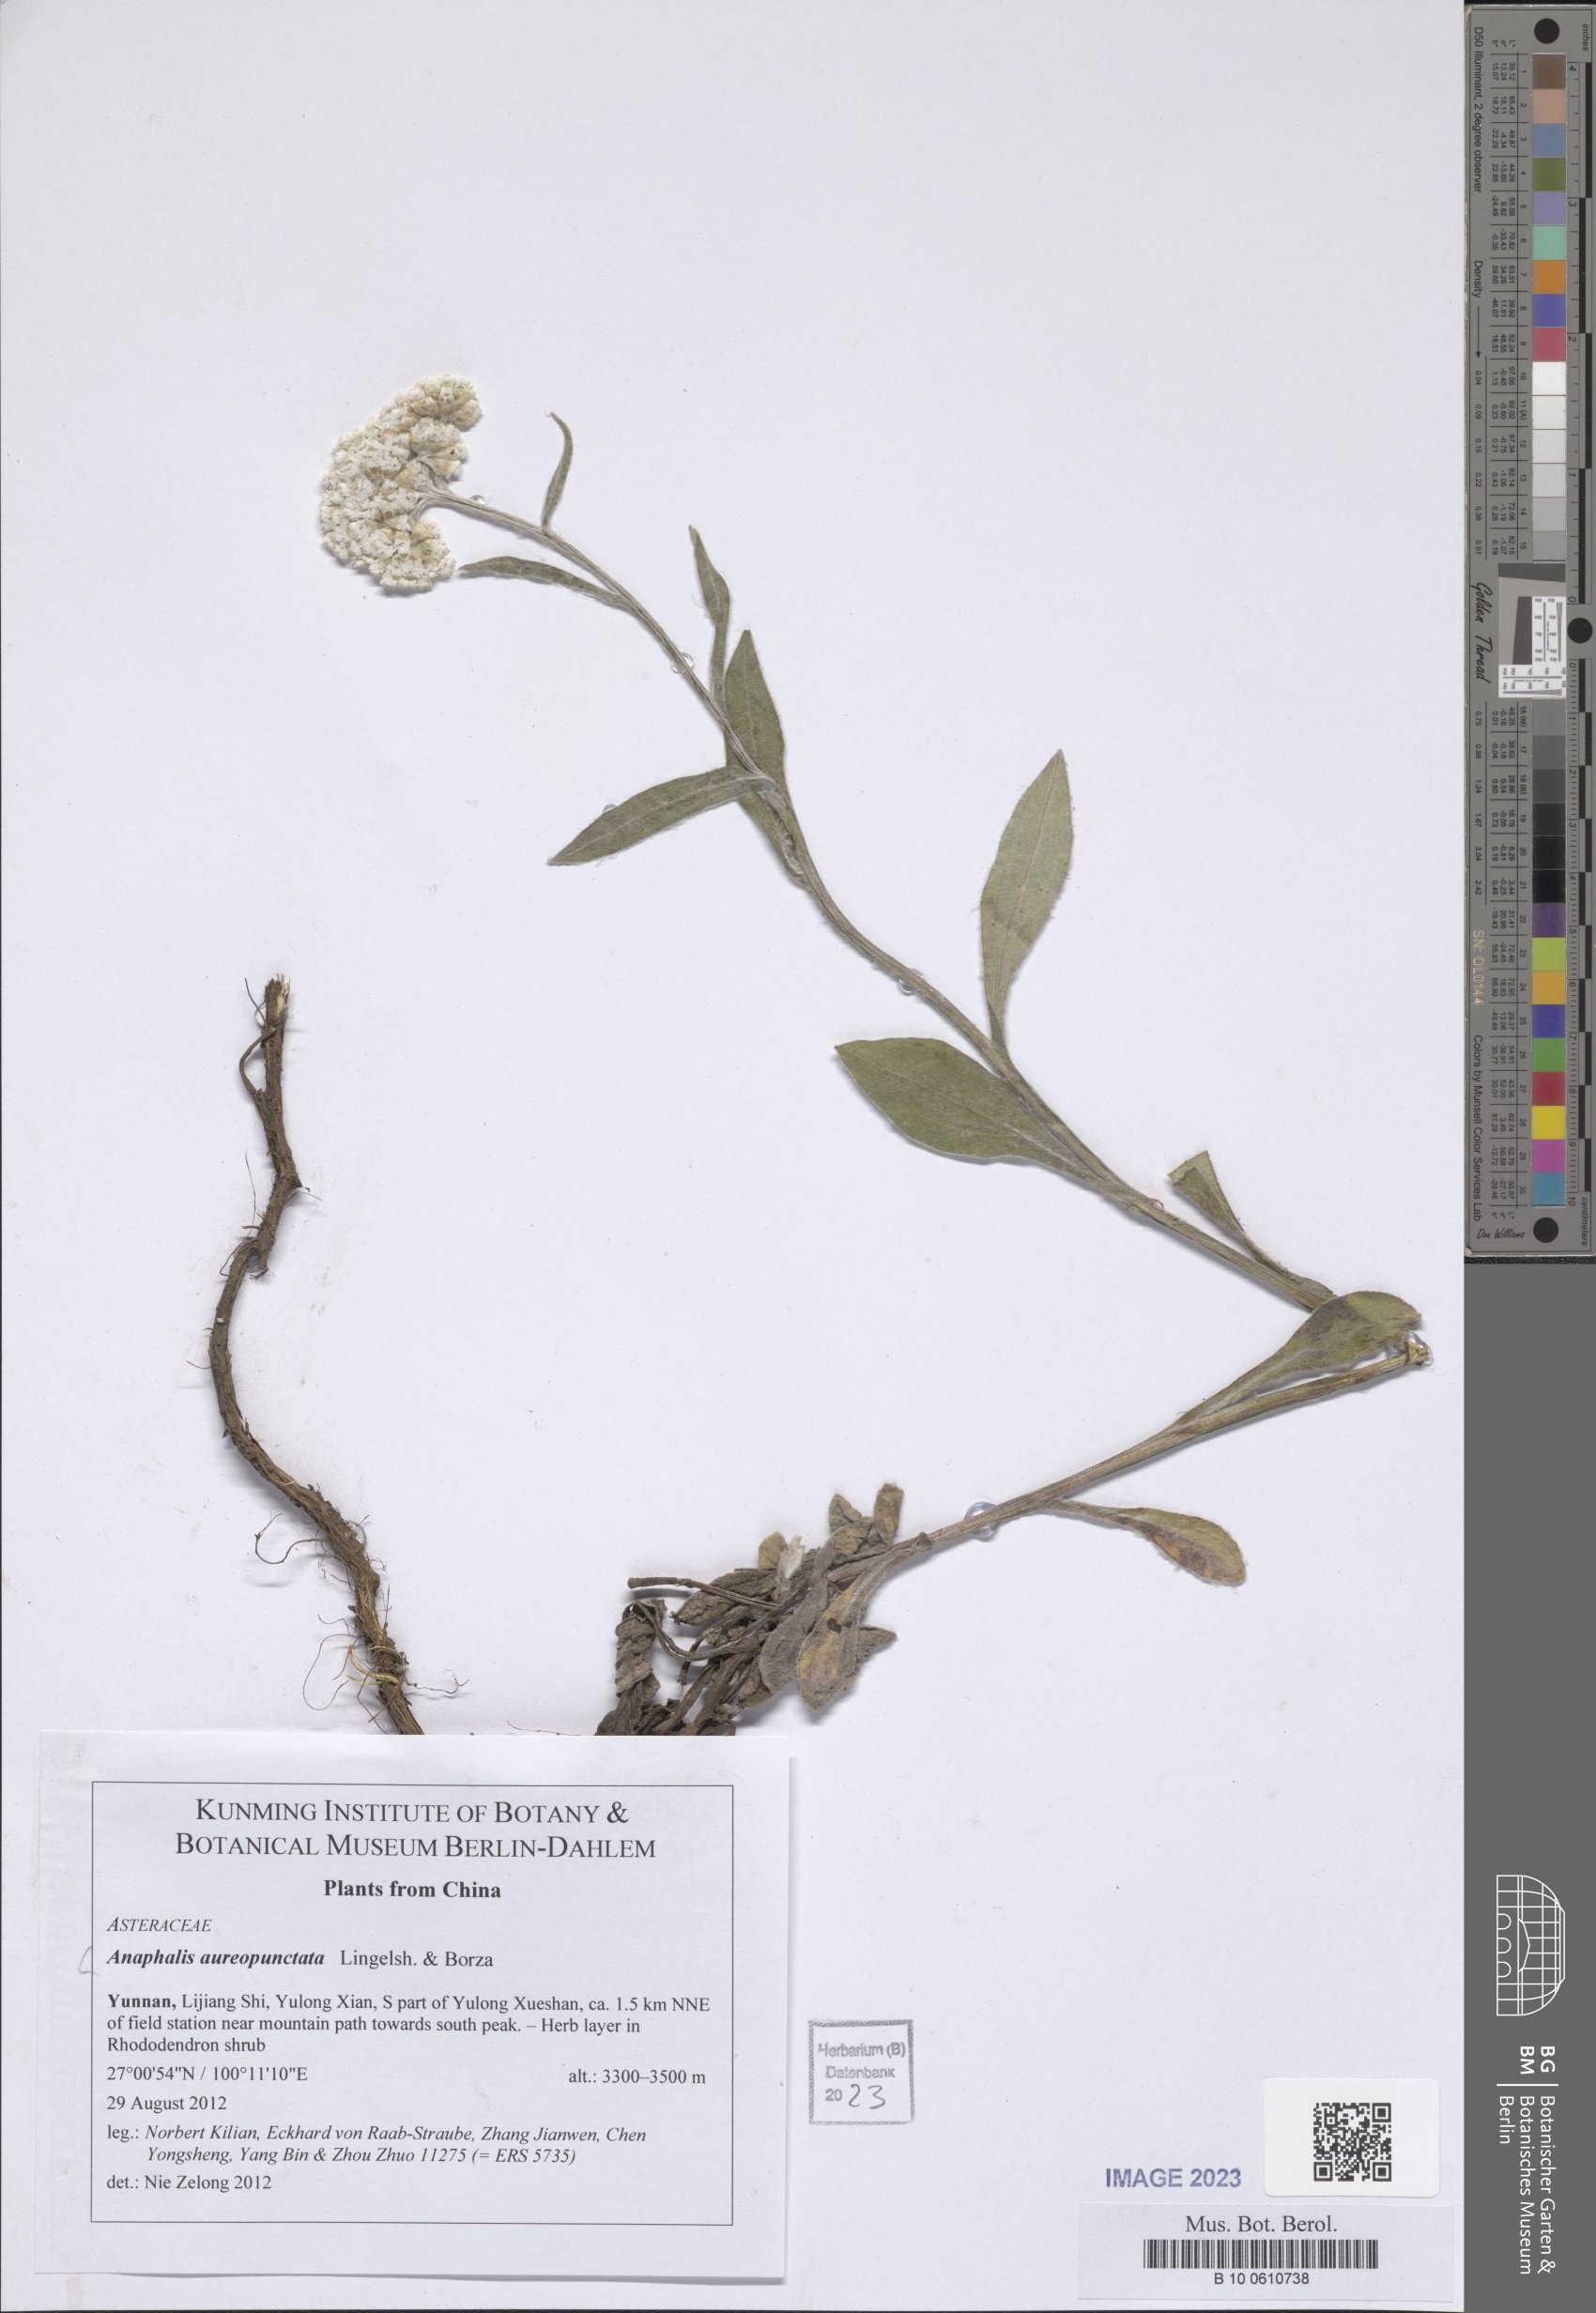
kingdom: Plantae
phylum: Tracheophyta
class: Magnoliopsida
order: Asterales
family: Asteraceae
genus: Anaphalis
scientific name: Anaphalis aureopunctata
